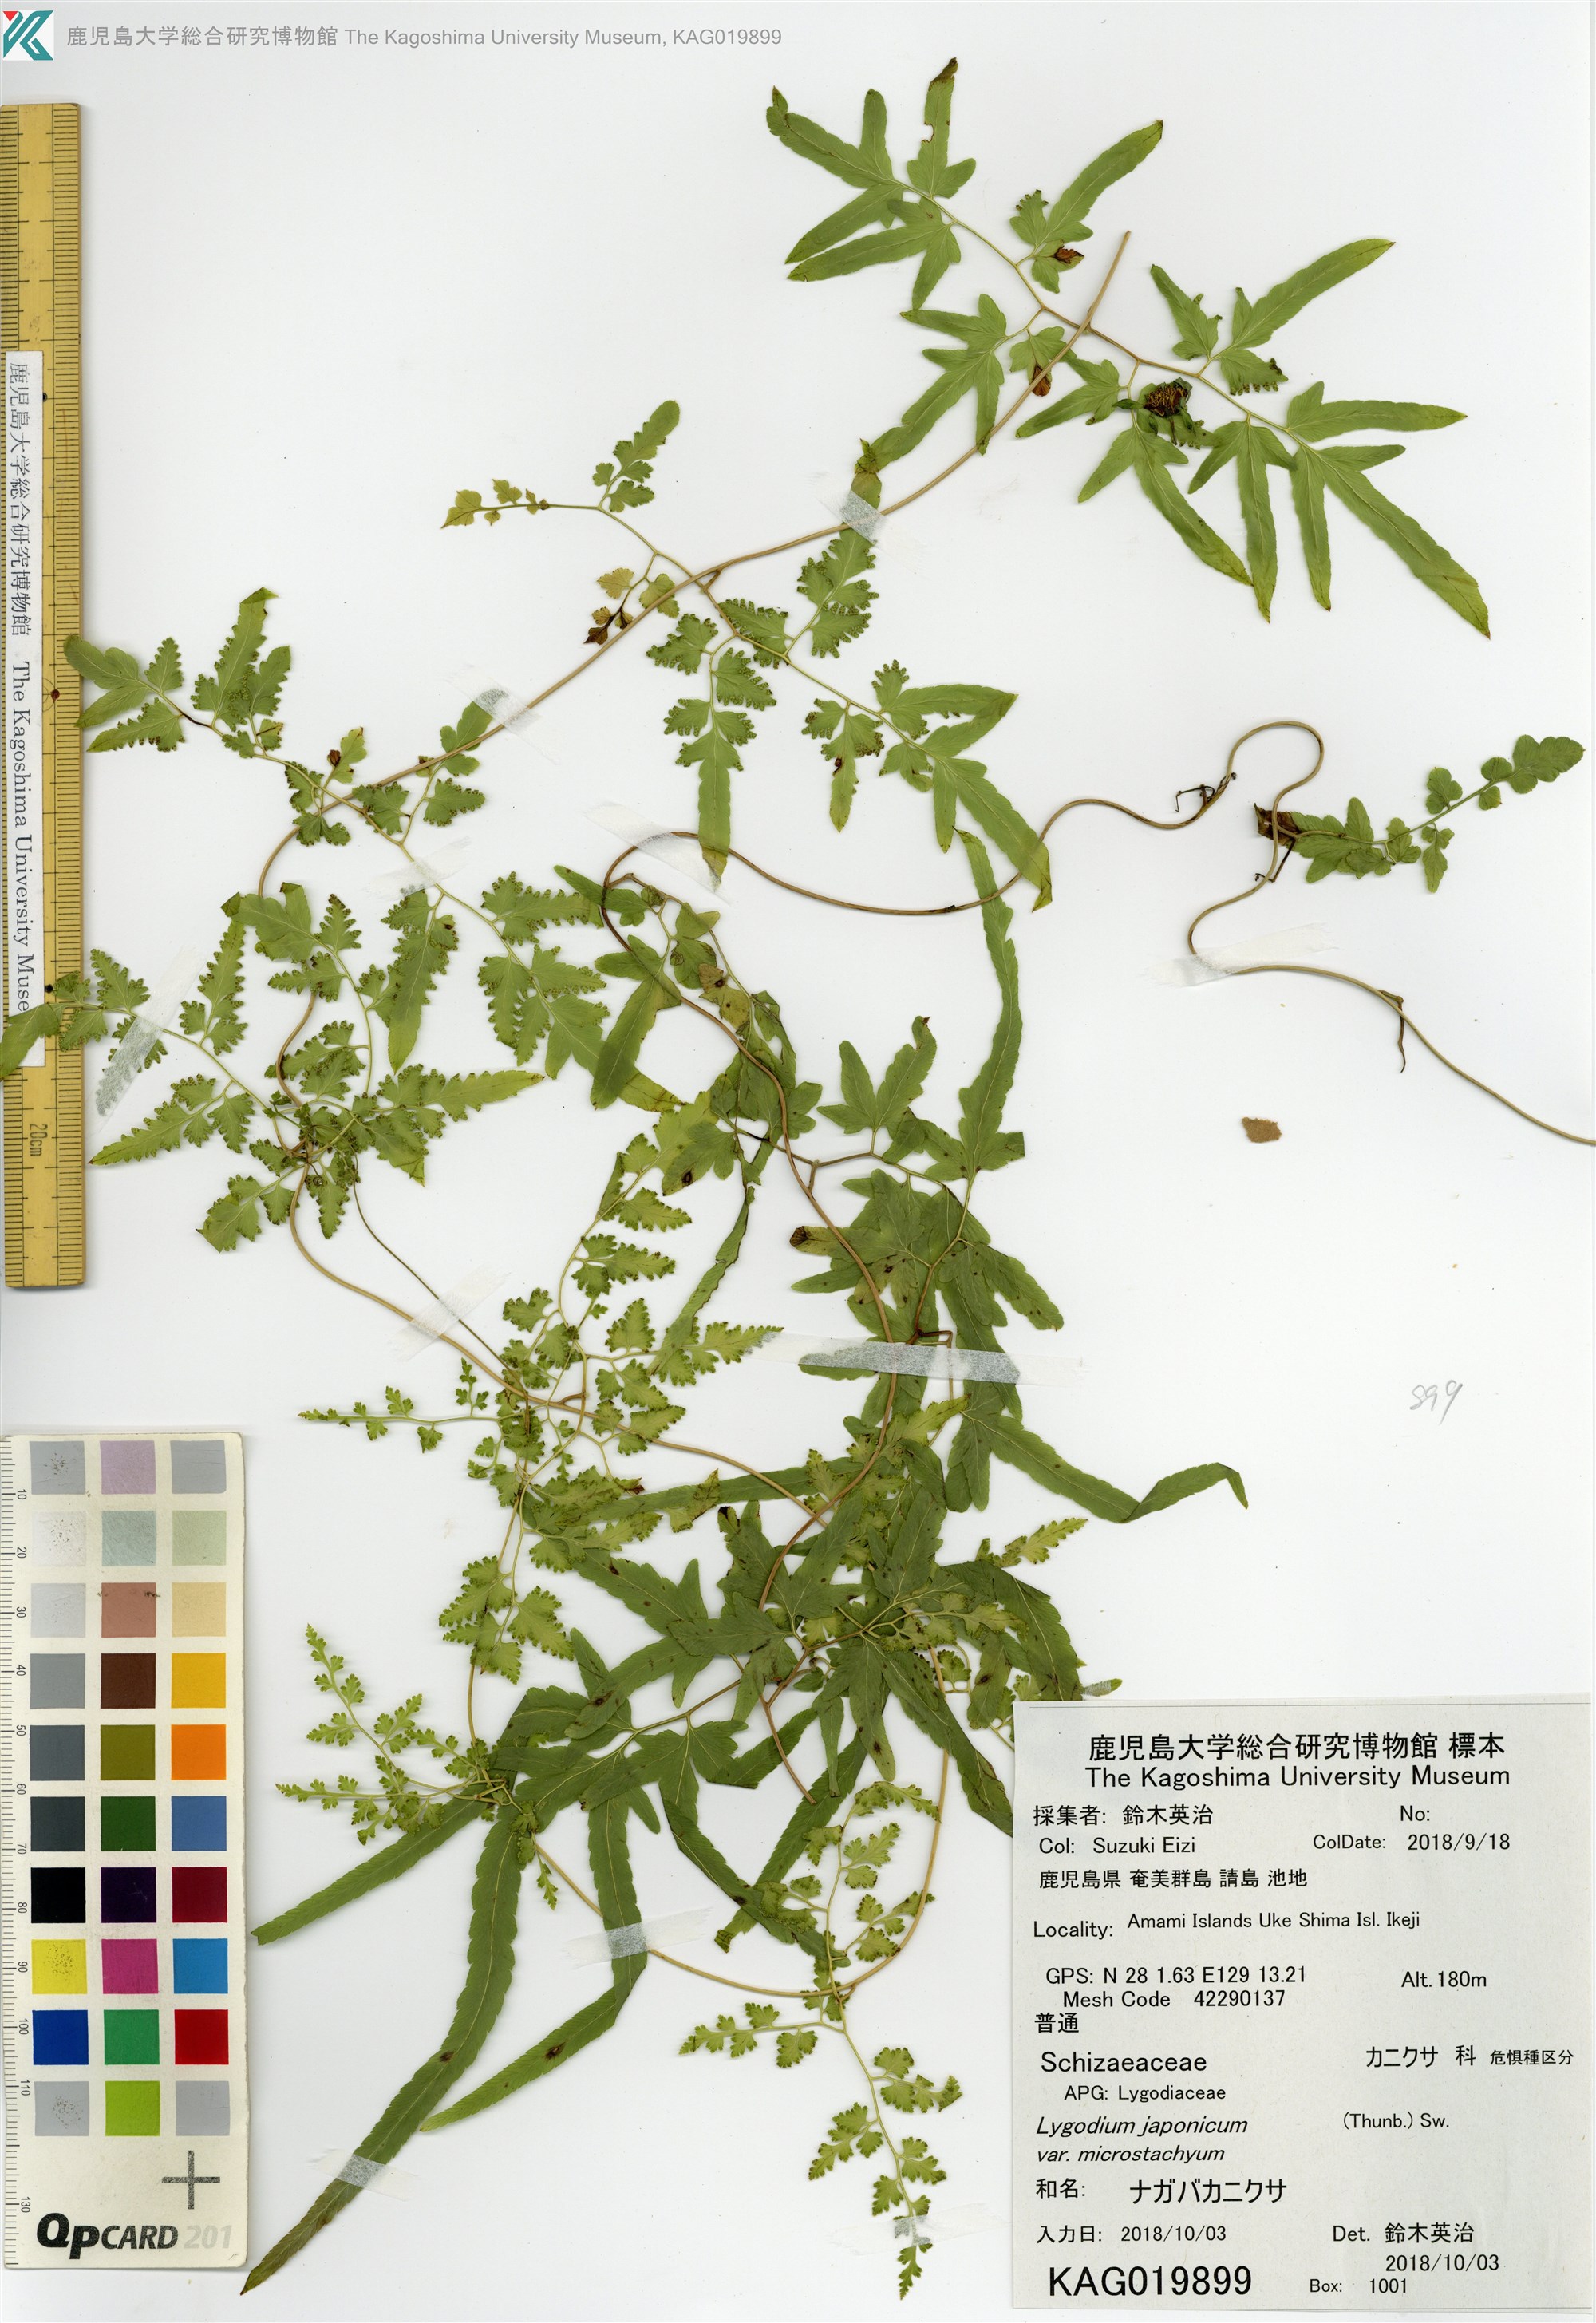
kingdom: Plantae
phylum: Tracheophyta
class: Polypodiopsida
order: Schizaeales
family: Lygodiaceae
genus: Lygodium
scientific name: Lygodium japonicum
